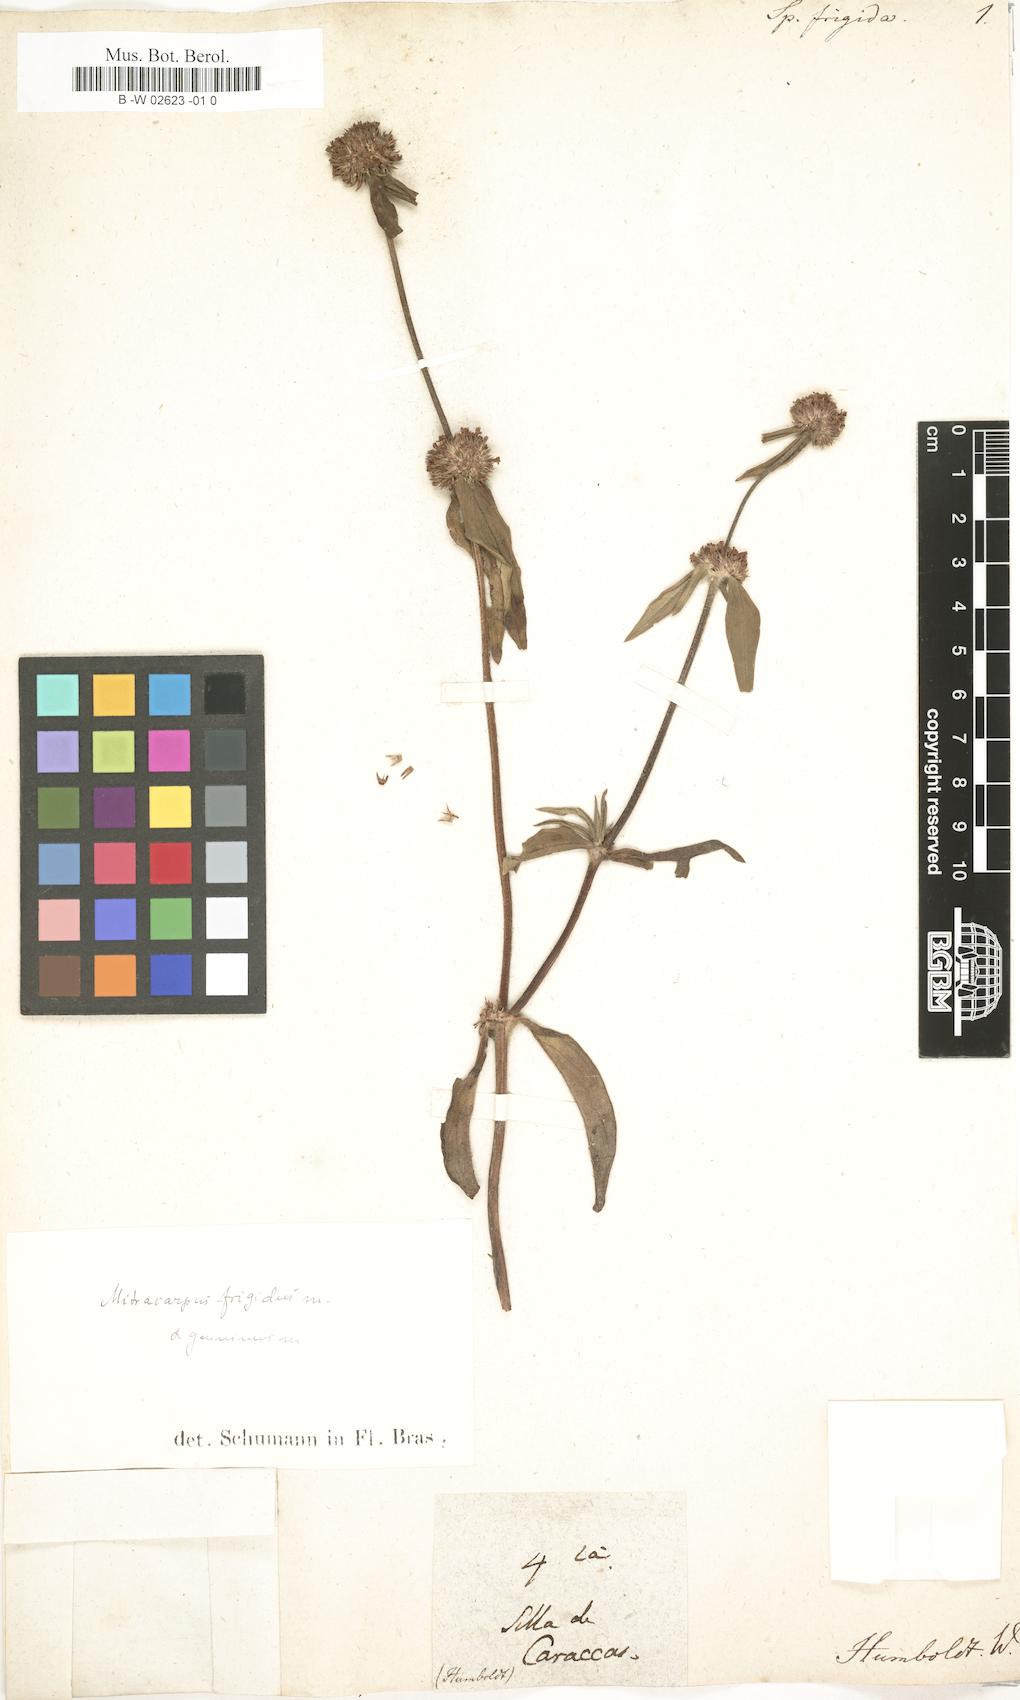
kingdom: Plantae
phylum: Tracheophyta
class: Magnoliopsida
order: Gentianales
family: Rubiaceae
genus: Mitracarpus
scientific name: Mitracarpus frigidus
